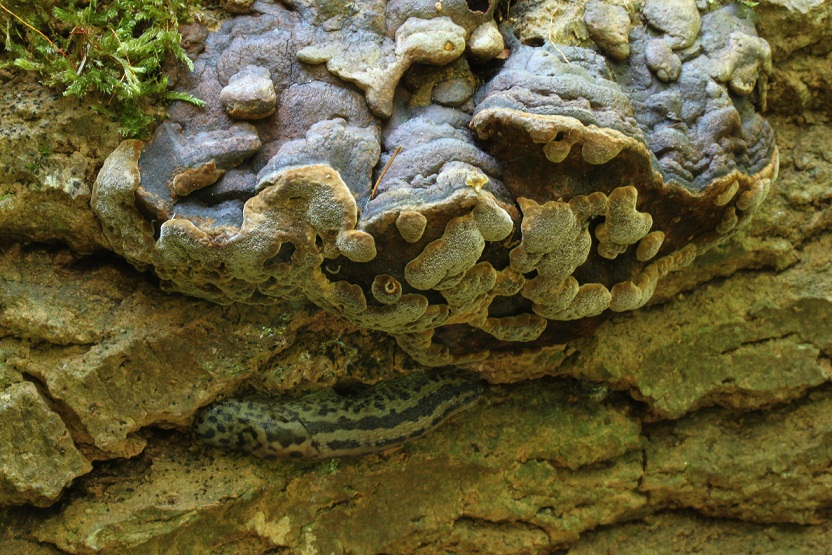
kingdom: Fungi
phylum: Basidiomycota
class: Agaricomycetes
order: Hymenochaetales
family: Hymenochaetaceae
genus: Phellinus
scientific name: Phellinus tremulae
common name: aspe-ildporesvamp
